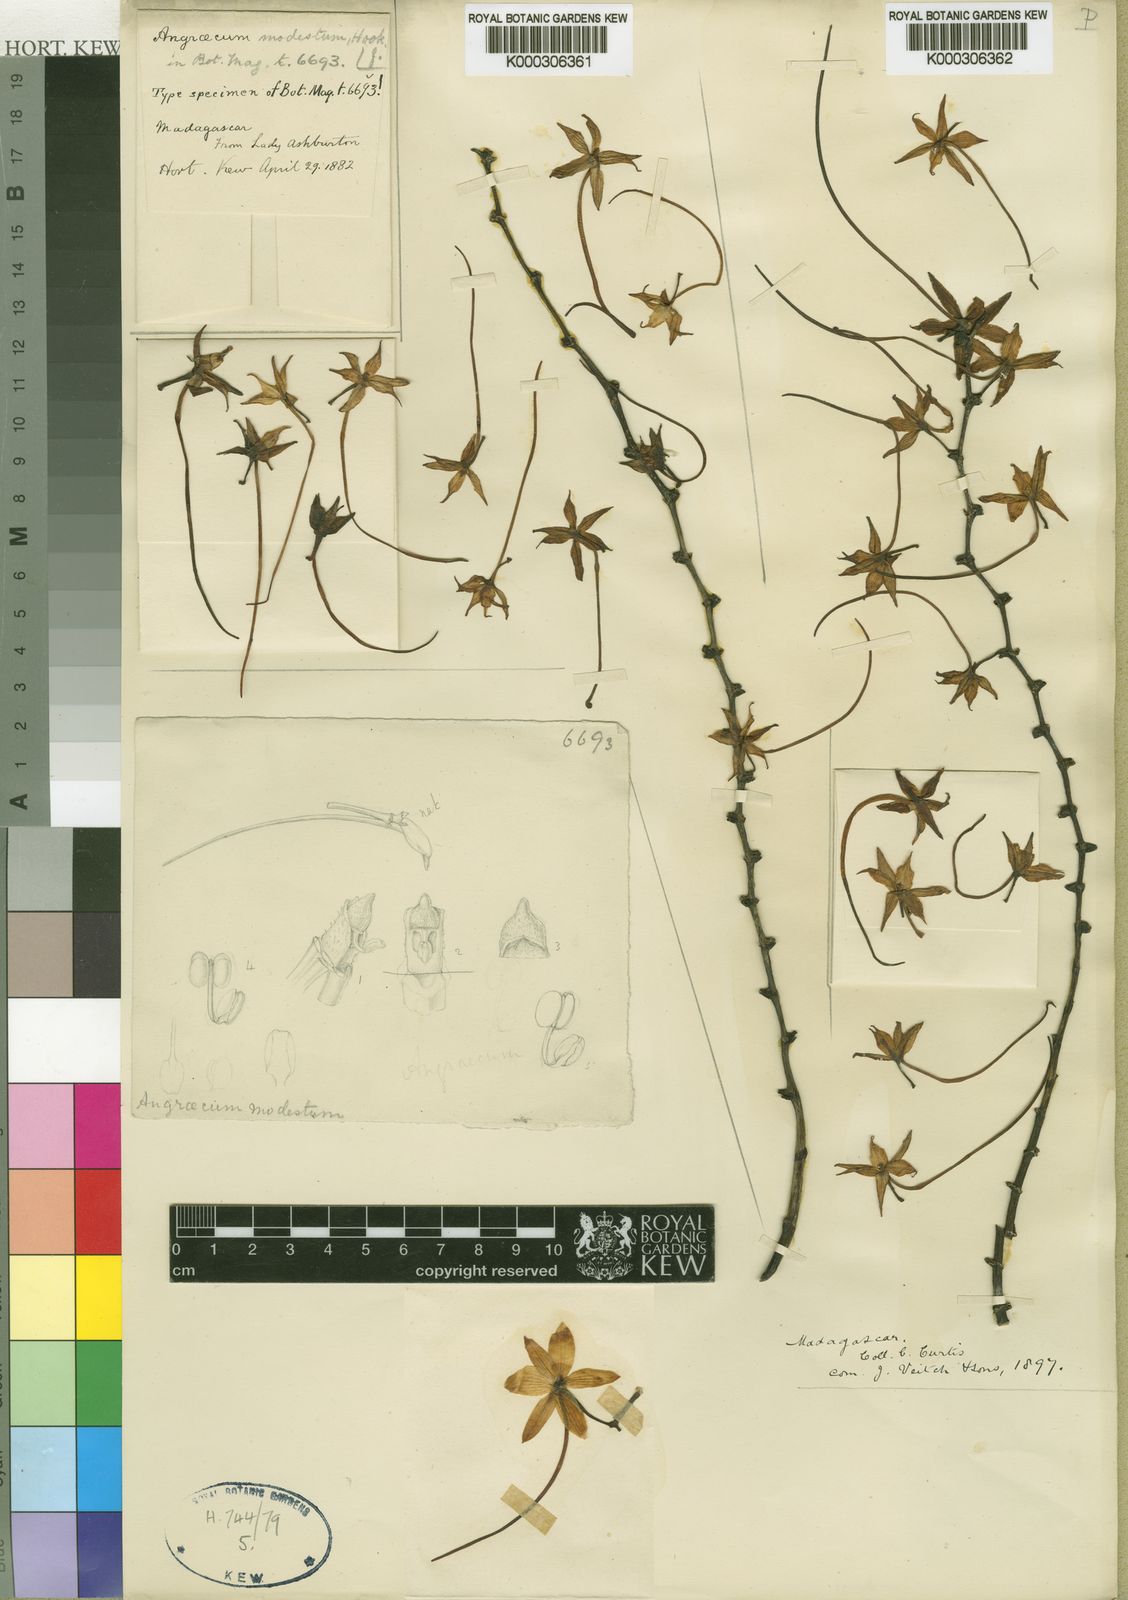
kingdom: Plantae
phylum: Tracheophyta
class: Liliopsida
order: Asparagales
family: Orchidaceae
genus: Aerangis
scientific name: Aerangis modesta
